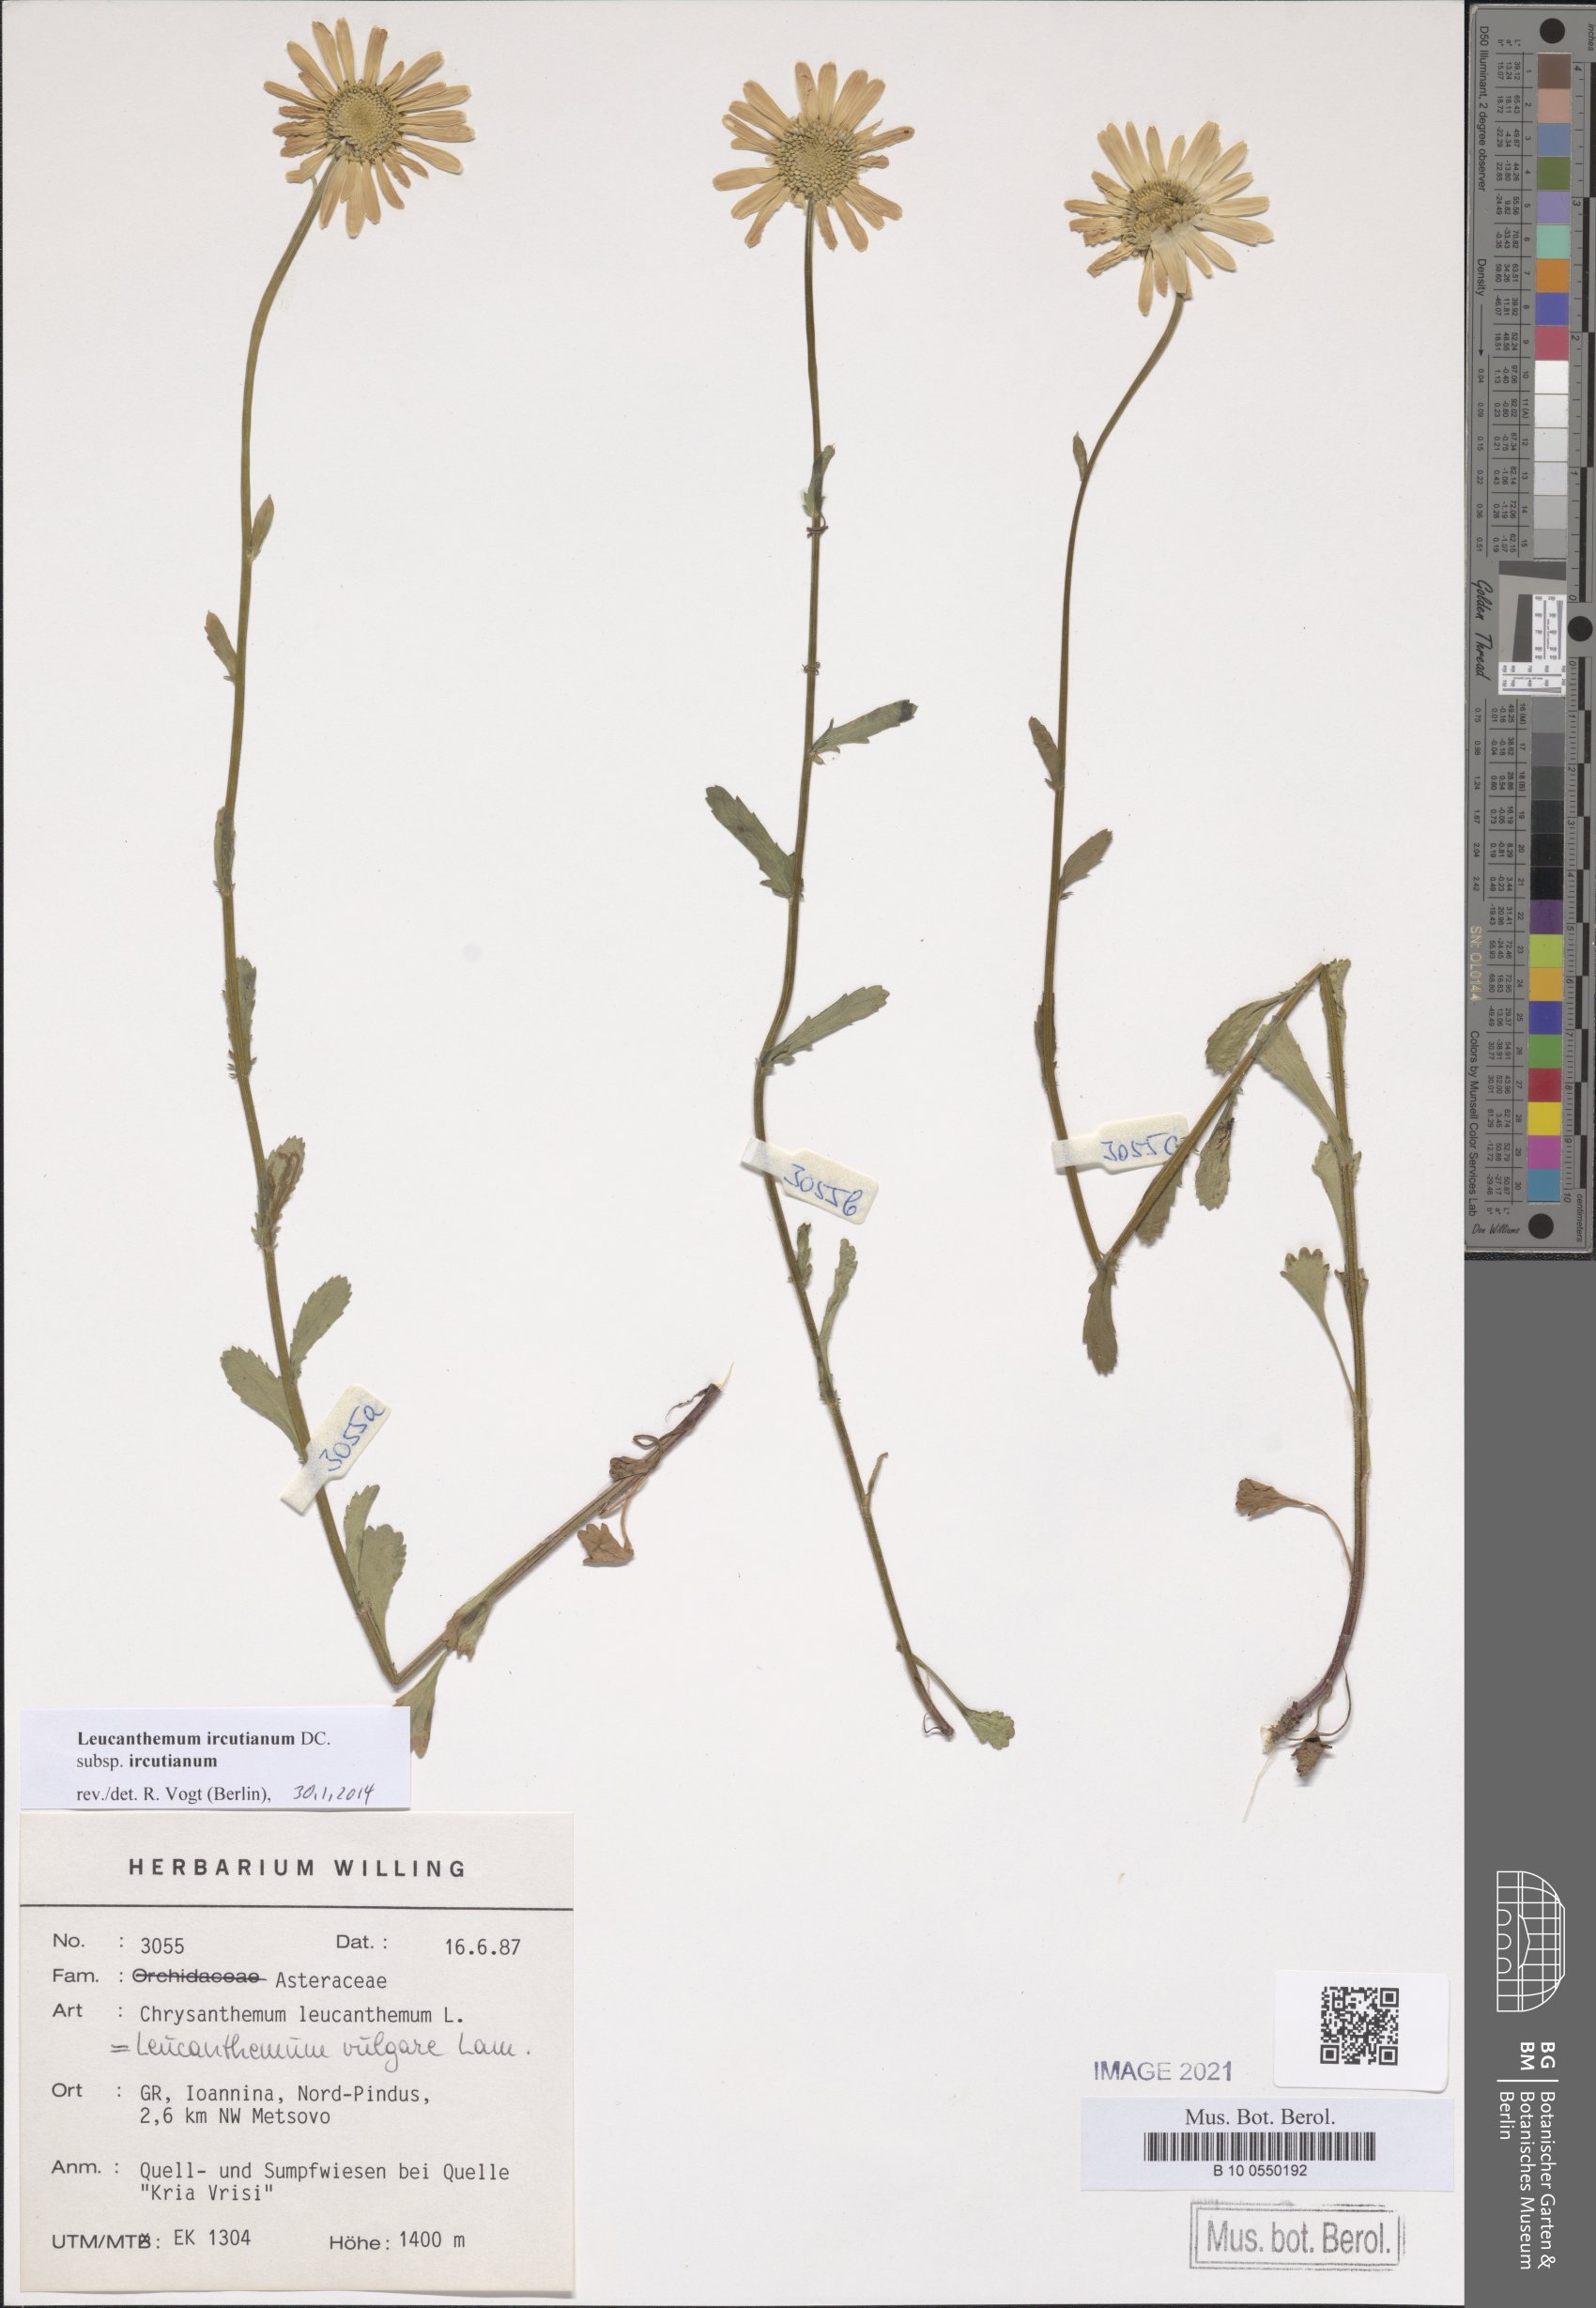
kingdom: Plantae
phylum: Tracheophyta
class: Magnoliopsida
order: Asterales
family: Asteraceae
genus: Leucanthemum
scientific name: Leucanthemum ircutianum
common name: Daisy
